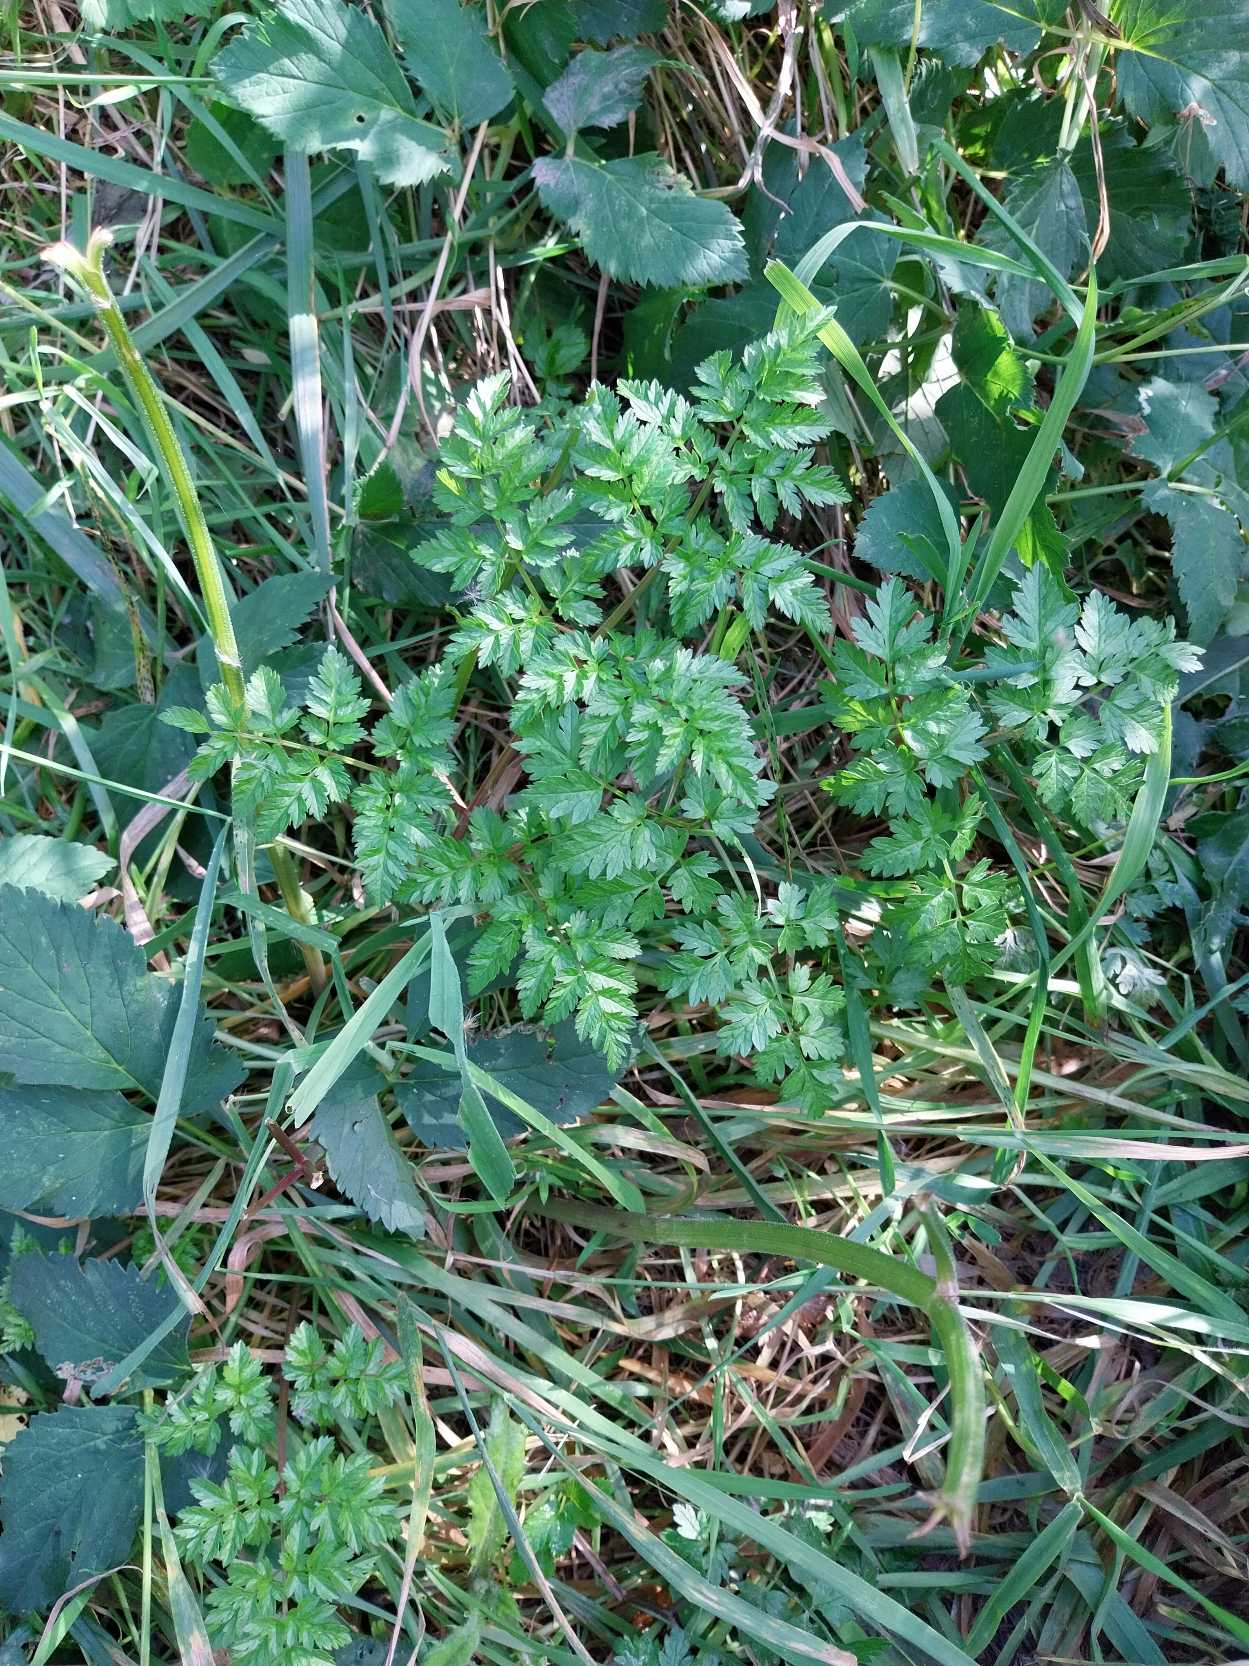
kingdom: Plantae
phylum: Tracheophyta
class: Magnoliopsida
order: Apiales
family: Apiaceae
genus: Anthriscus
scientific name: Anthriscus sylvestris
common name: Vild kørvel
